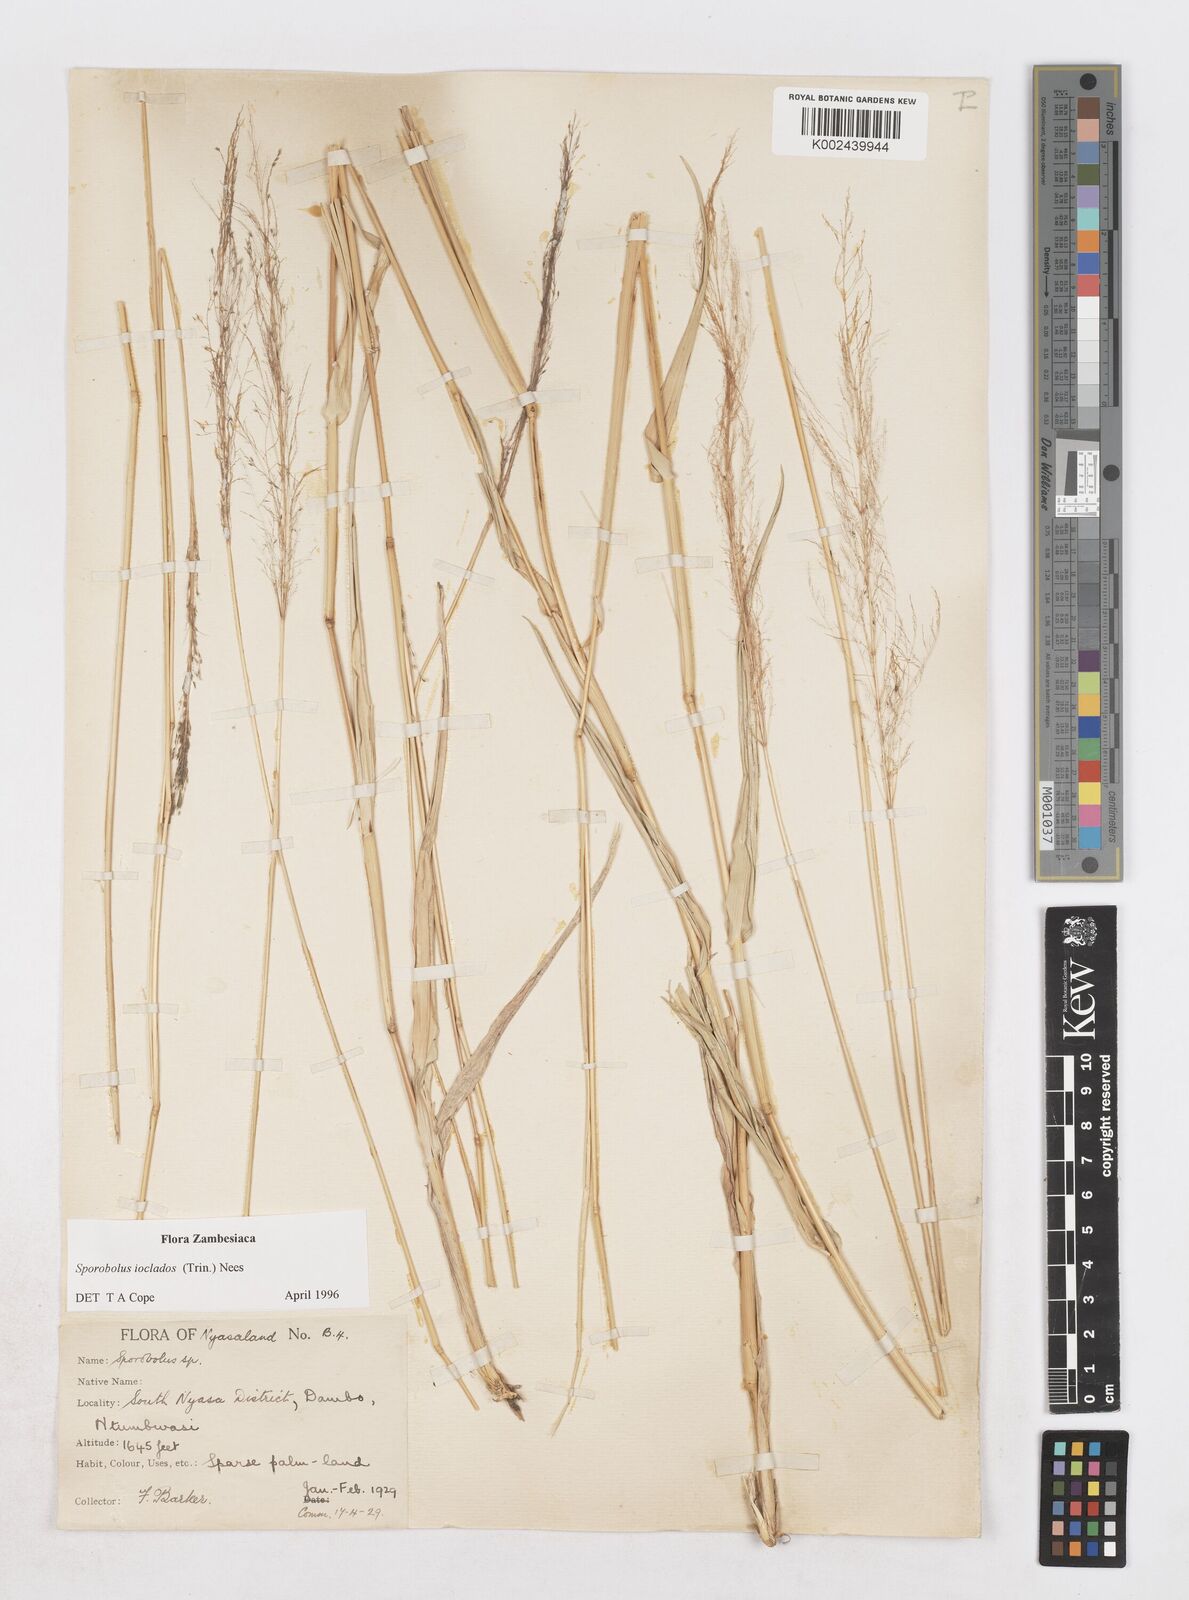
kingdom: Plantae
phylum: Tracheophyta
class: Liliopsida
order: Poales
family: Poaceae
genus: Sporobolus
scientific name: Sporobolus ioclados
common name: Pan dropseed
